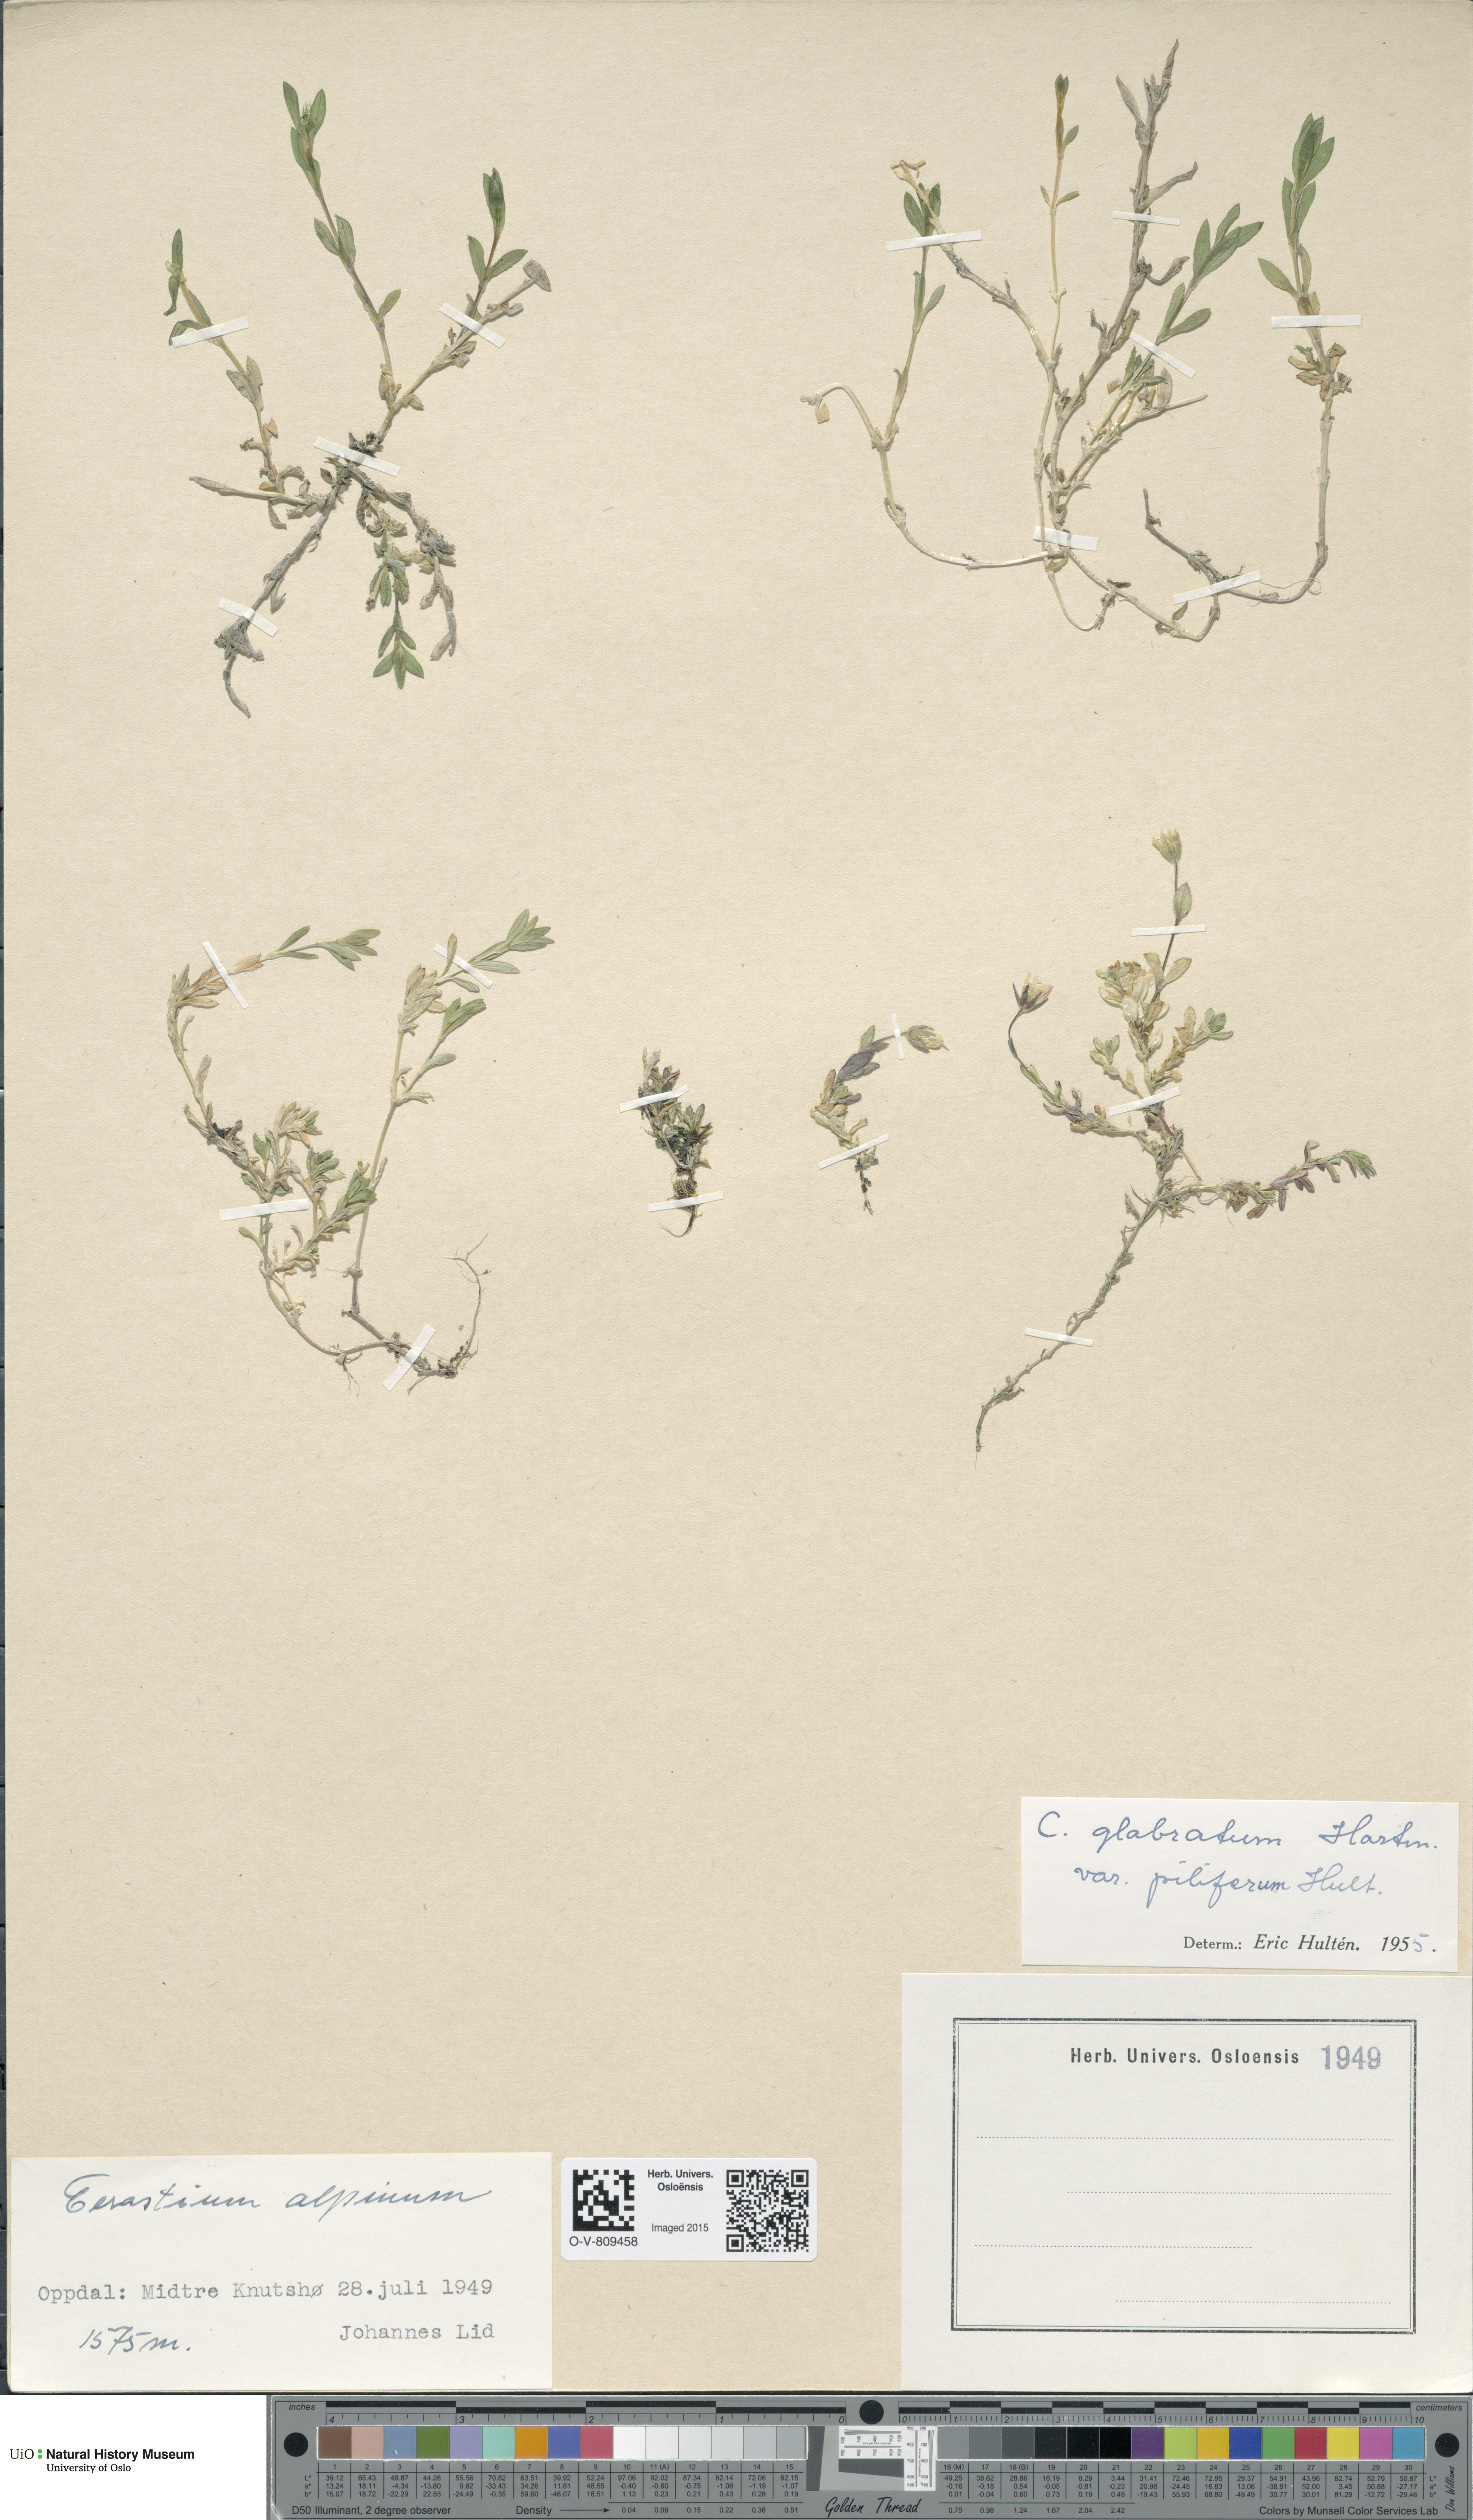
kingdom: Plantae
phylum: Tracheophyta
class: Magnoliopsida
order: Caryophyllales
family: Caryophyllaceae
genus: Cerastium
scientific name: Cerastium alpinum
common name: Alpine mouse-ear
